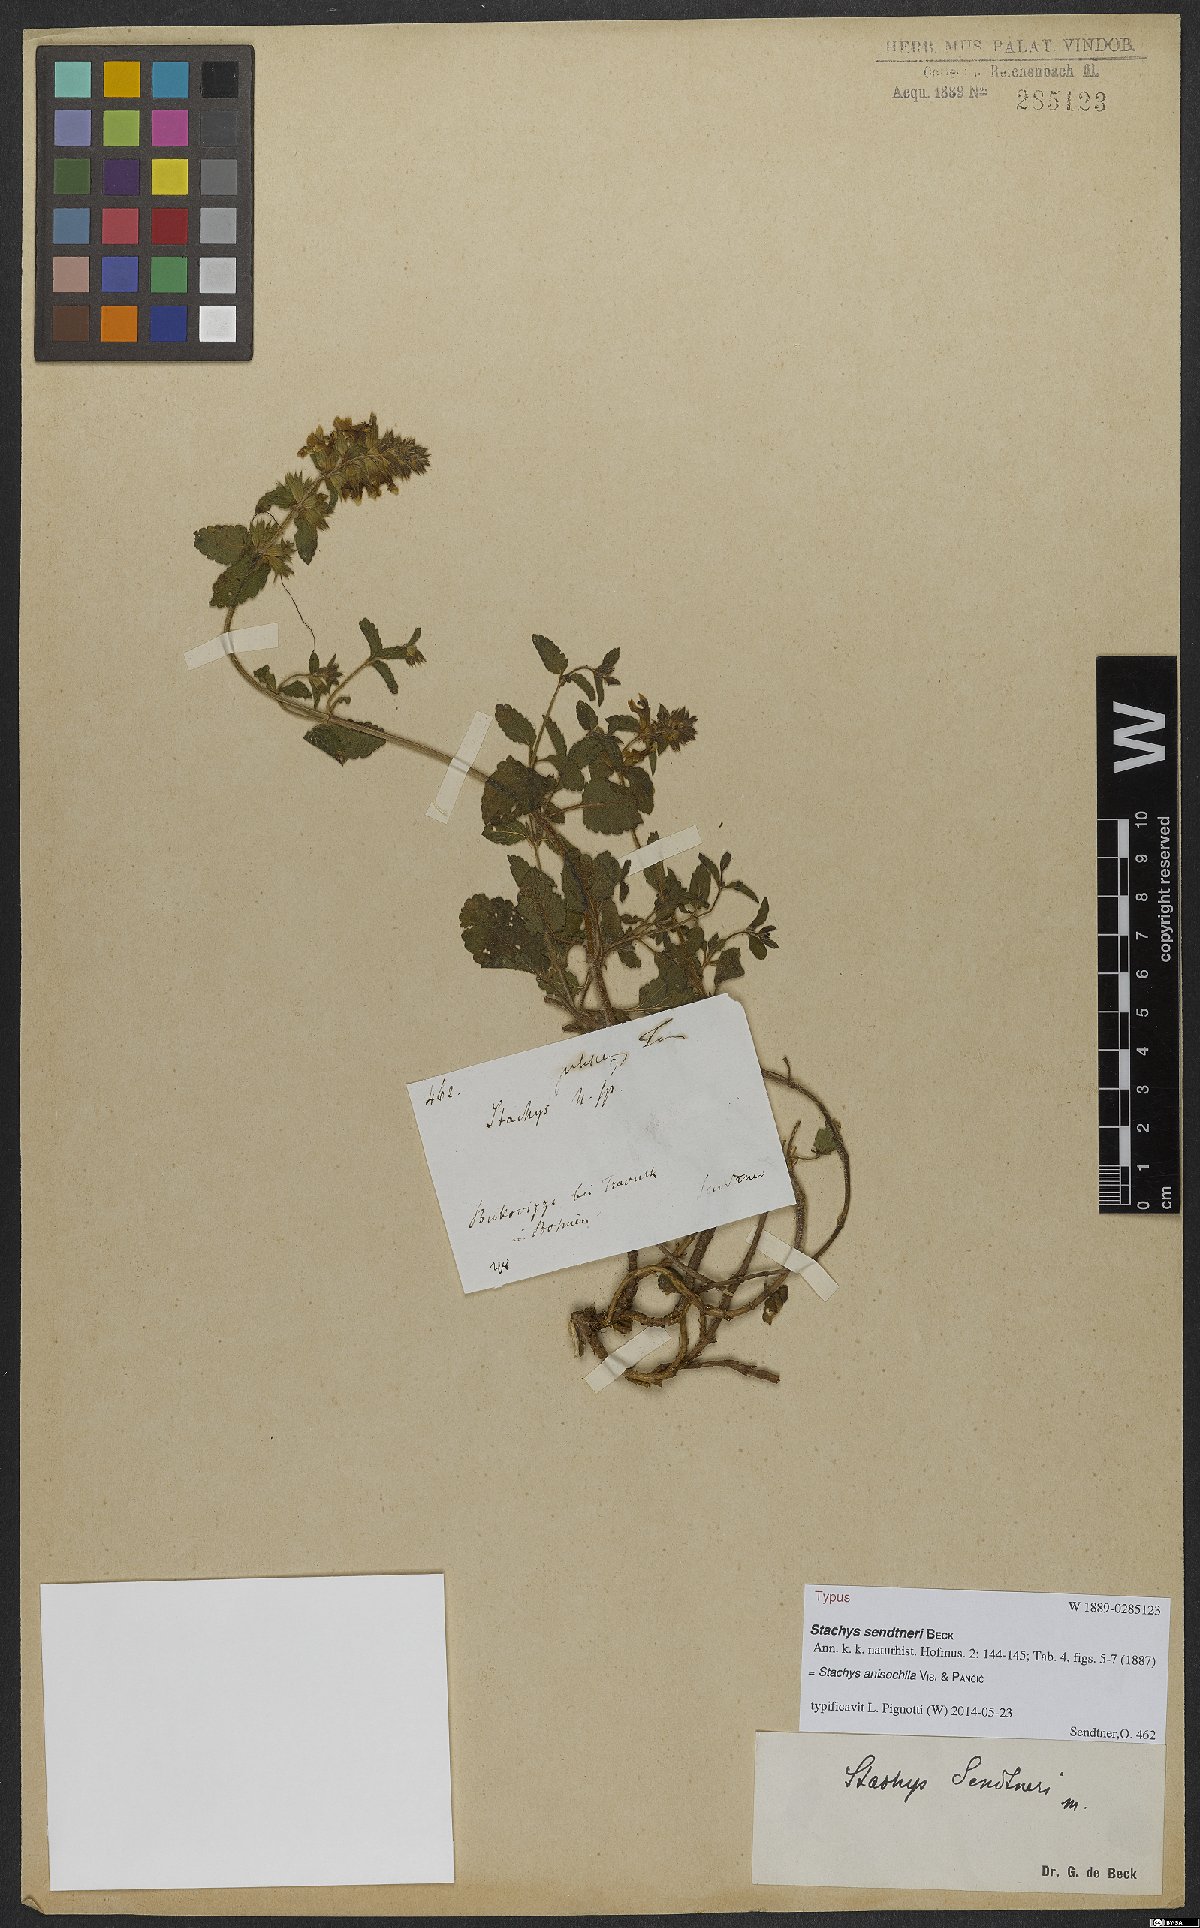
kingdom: Plantae
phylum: Tracheophyta
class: Magnoliopsida
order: Lamiales
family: Lamiaceae
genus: Stachys
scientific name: Stachys anisochila
